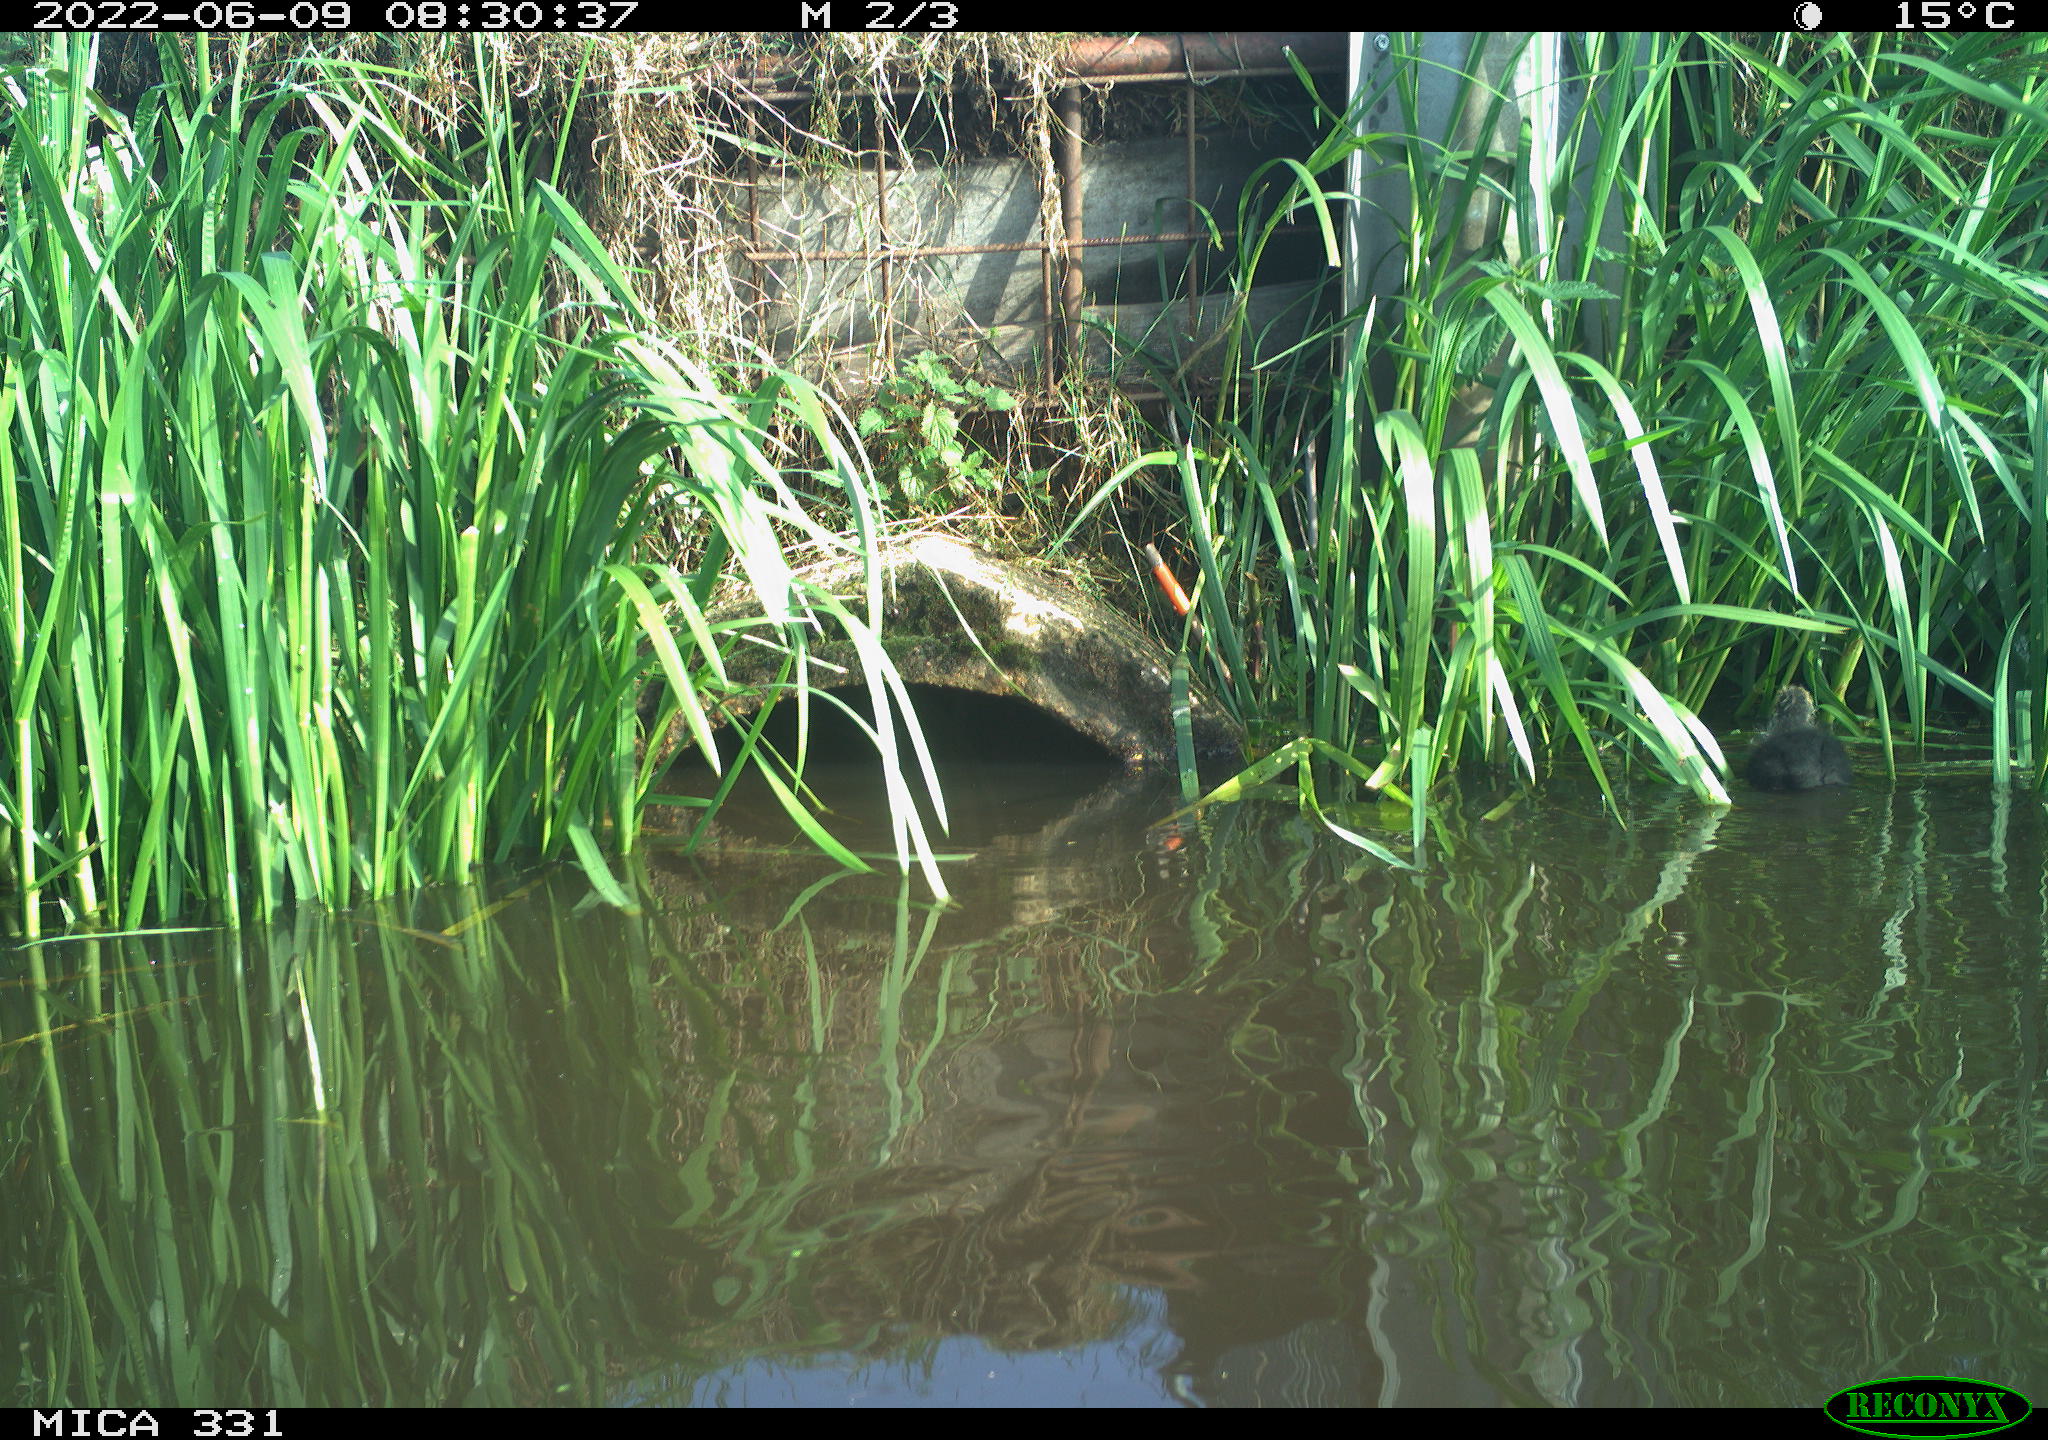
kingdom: Animalia
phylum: Chordata
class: Aves
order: Gruiformes
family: Rallidae
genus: Fulica
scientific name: Fulica atra
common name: Eurasian coot
